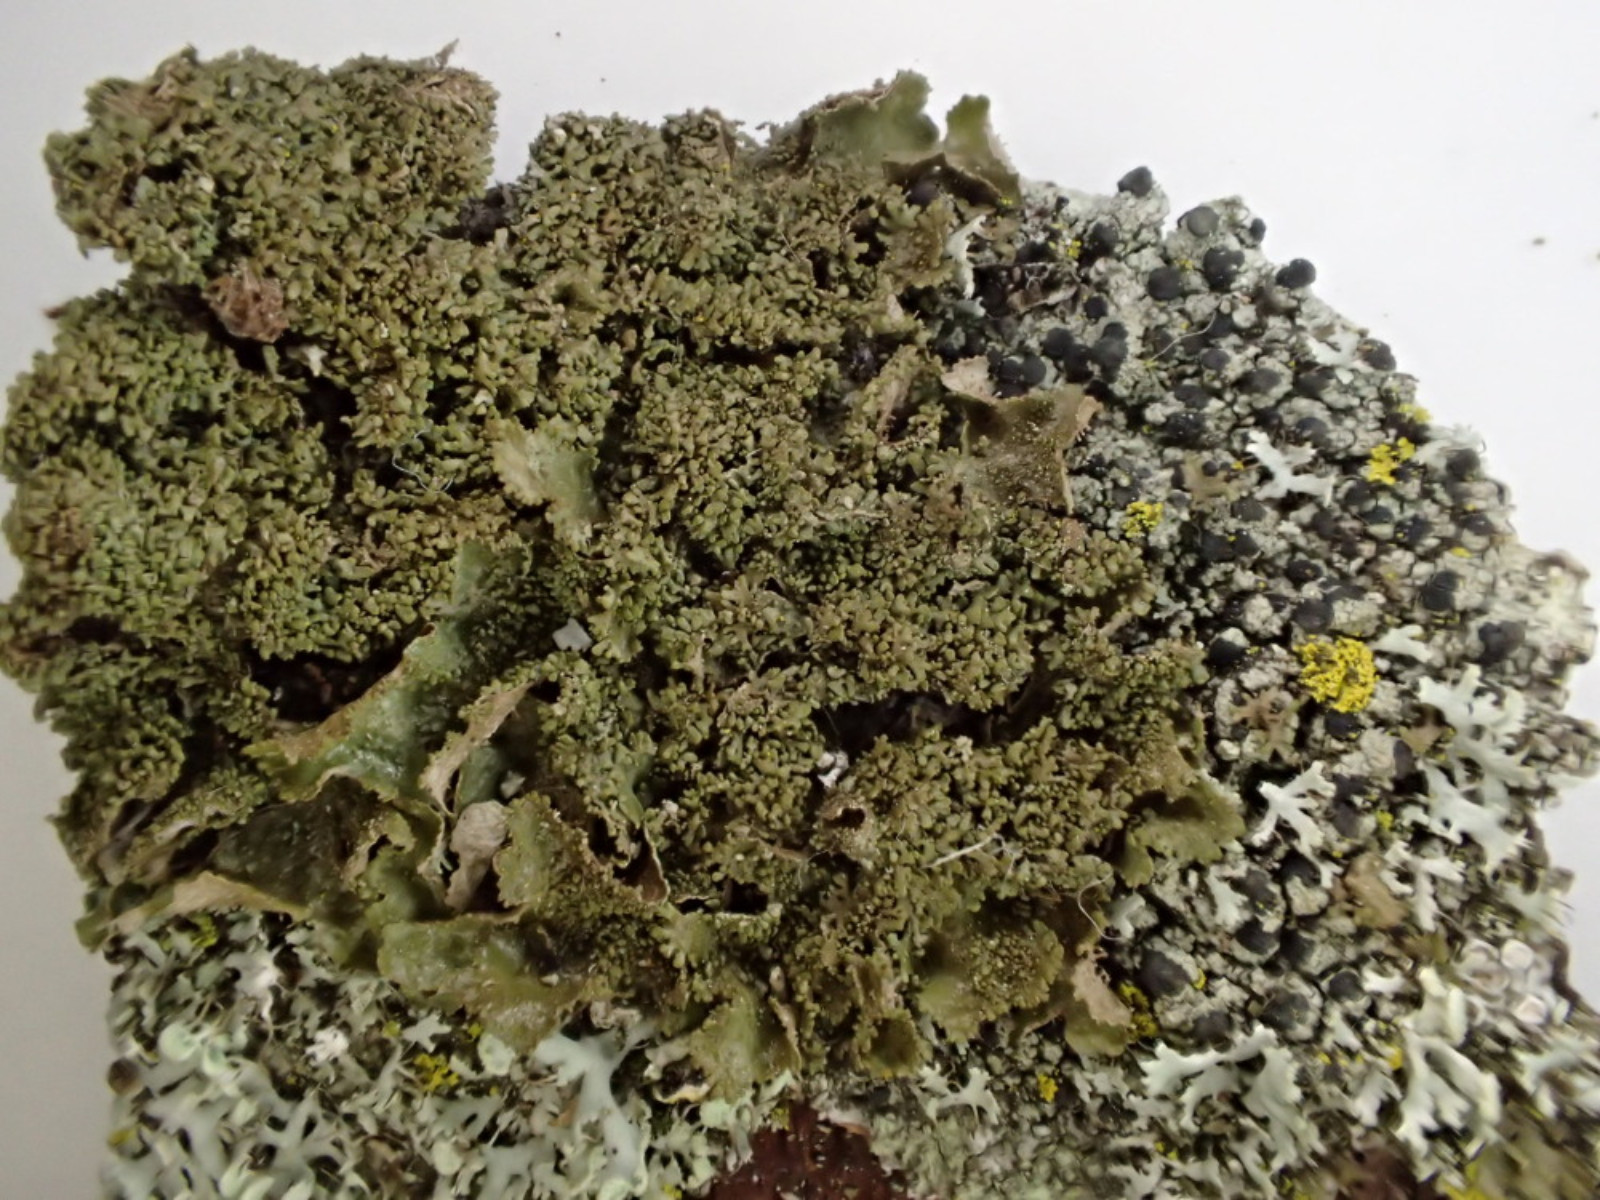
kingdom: Fungi
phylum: Ascomycota
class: Lecanoromycetes
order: Lecanorales
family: Parmeliaceae
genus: Melanohalea
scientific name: Melanohalea exasperatula
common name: kølle-skållav
